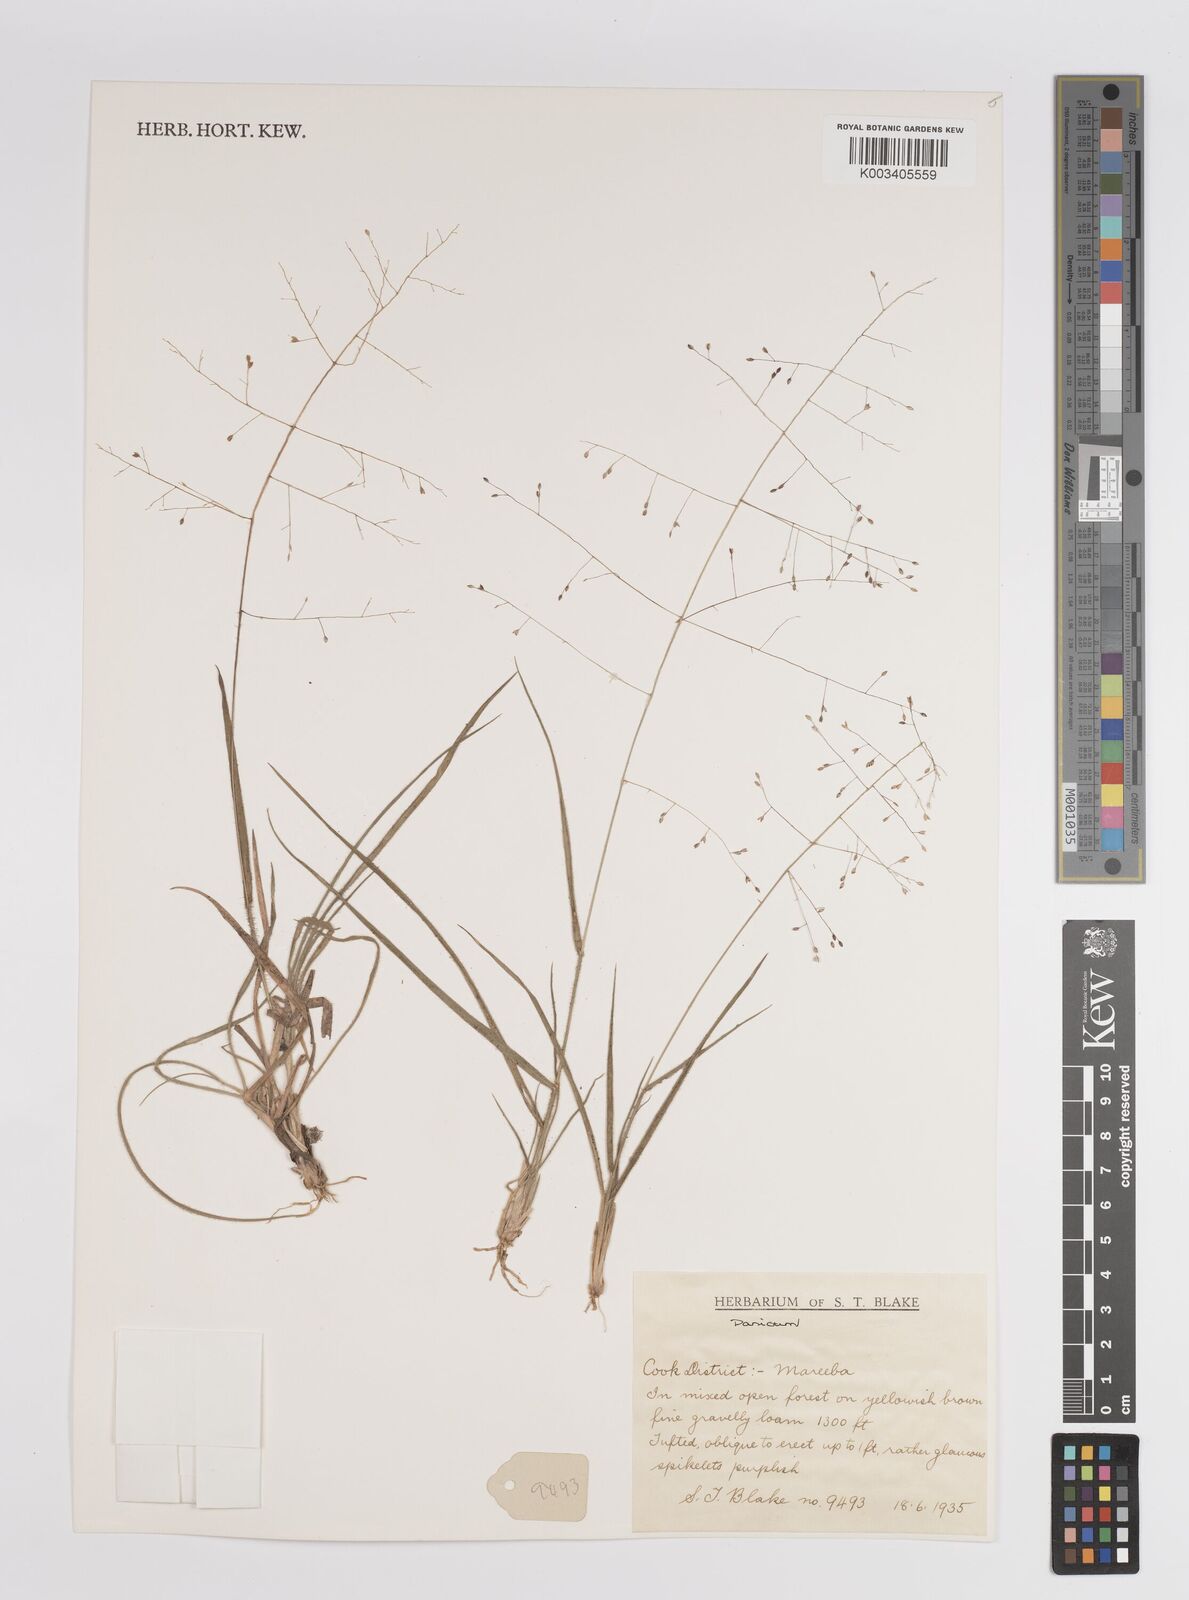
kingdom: Plantae
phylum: Tracheophyta
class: Liliopsida
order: Poales
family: Poaceae
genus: Panicum
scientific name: Panicum
